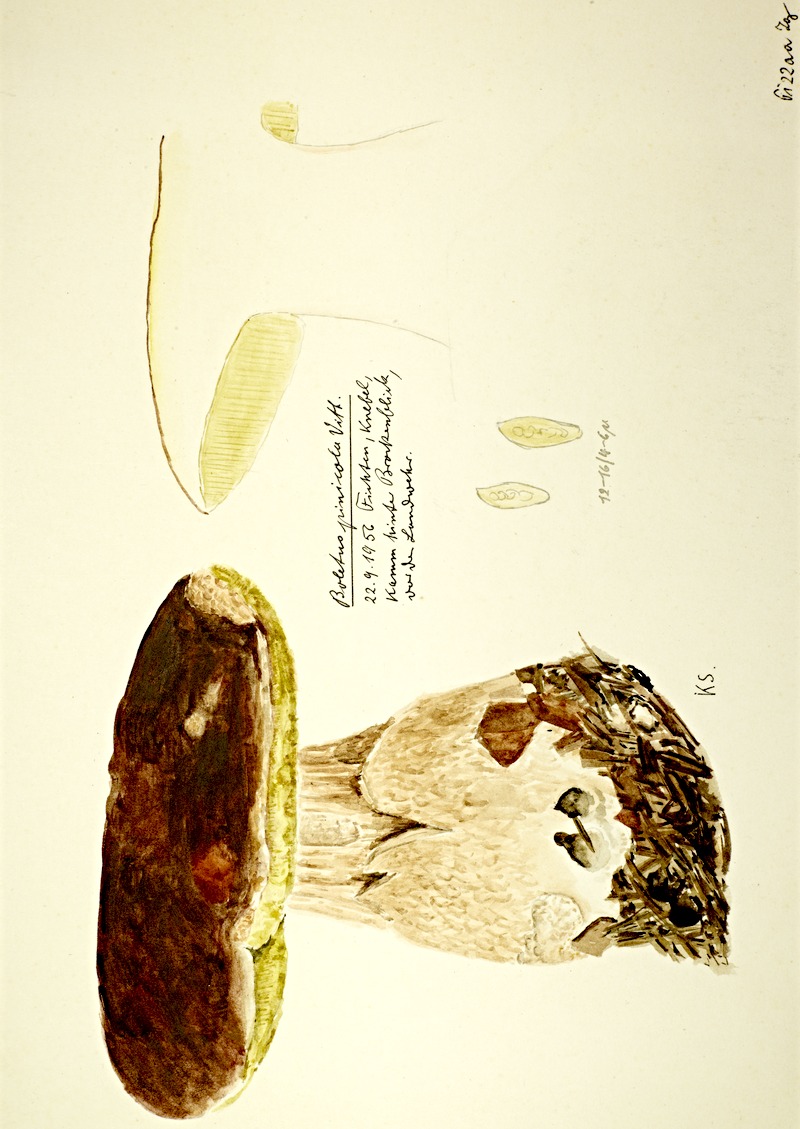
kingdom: Fungi
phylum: Basidiomycota
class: Agaricomycetes
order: Boletales
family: Boletaceae
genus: Boletus
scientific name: Boletus pinophilus
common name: Pine bolete
